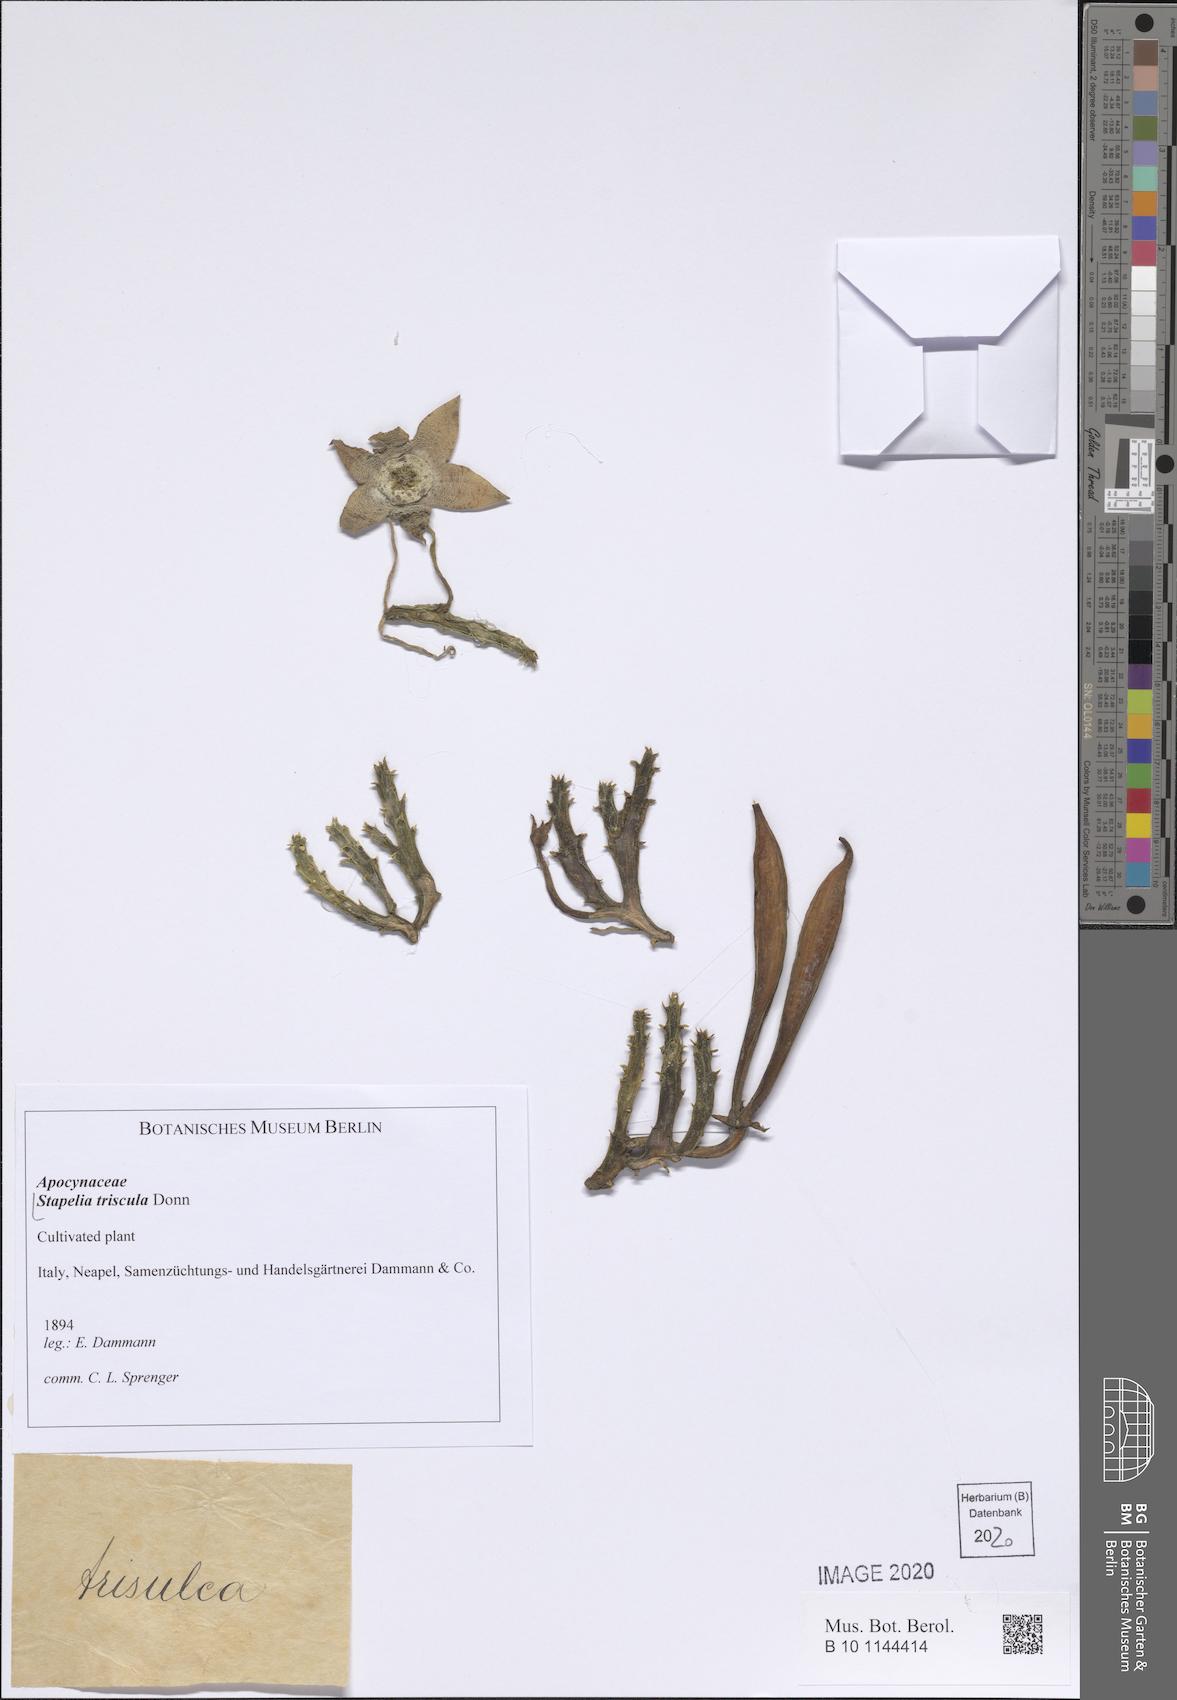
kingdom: Plantae
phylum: Tracheophyta
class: Magnoliopsida
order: Gentianales
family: Apocynaceae
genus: Ceropegia
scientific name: Ceropegia mixta
